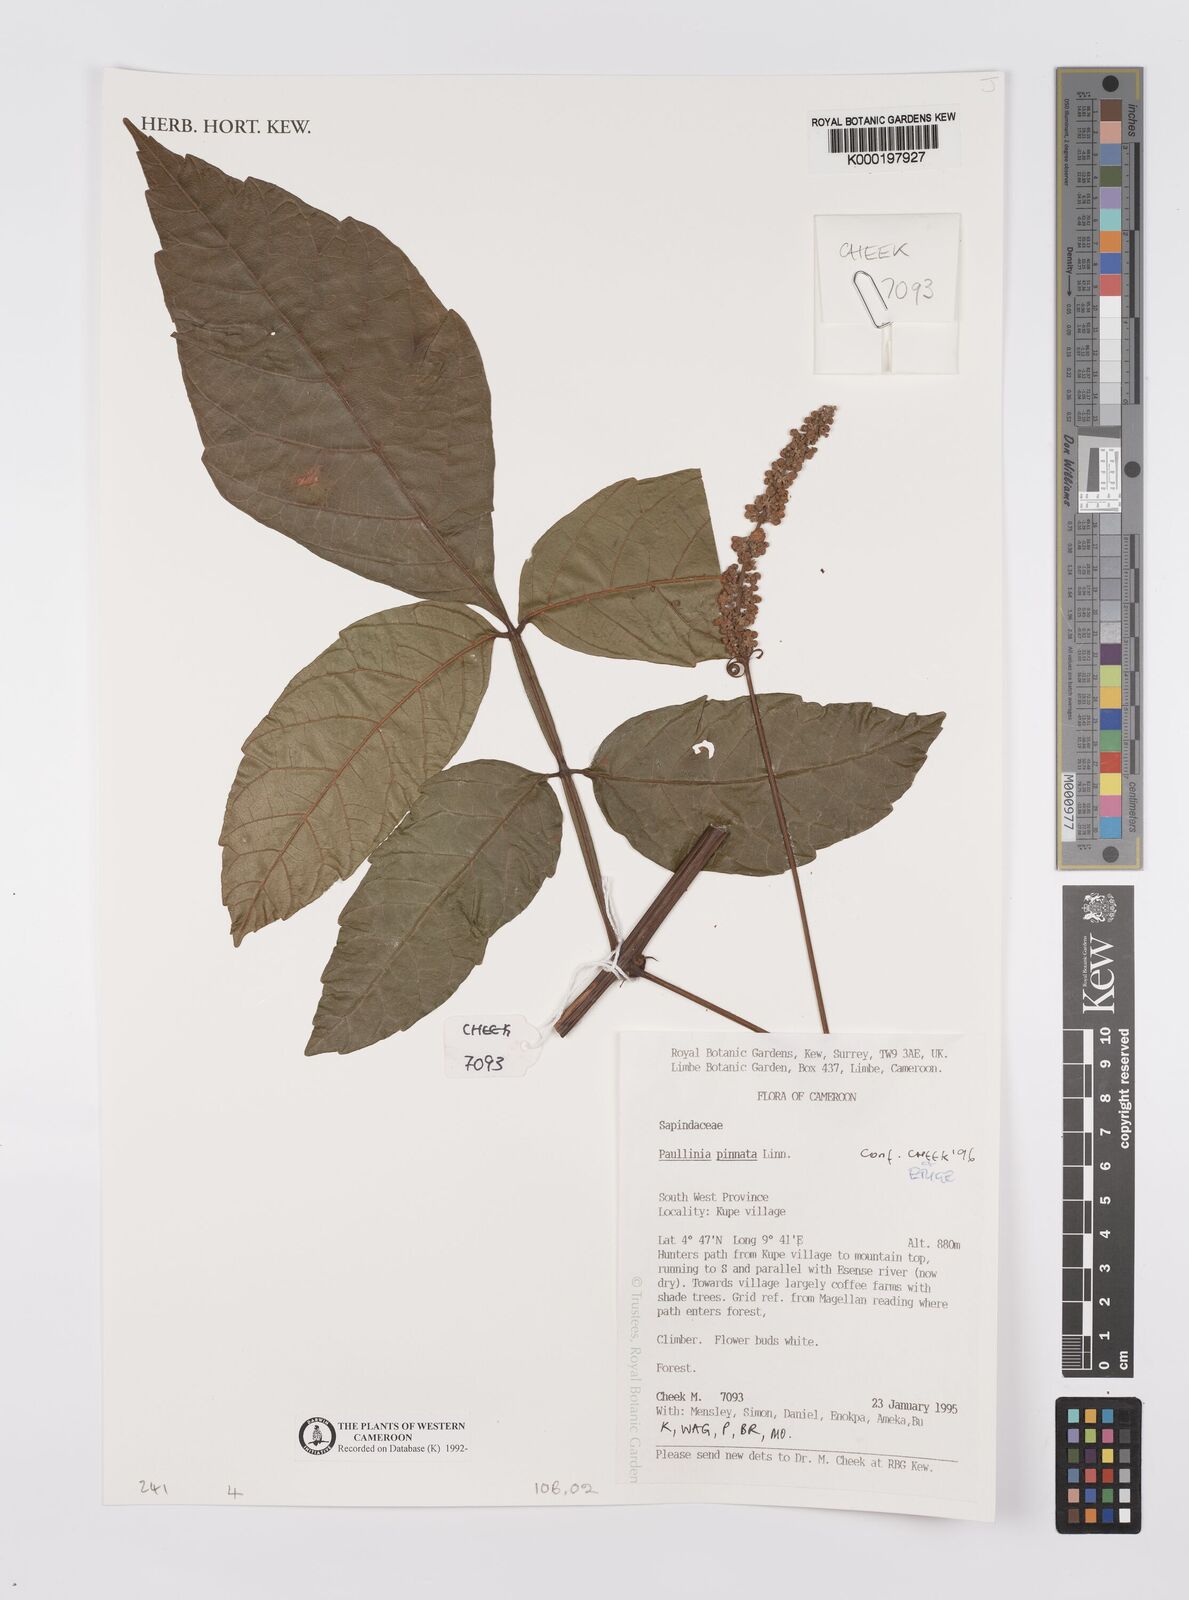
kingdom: Plantae
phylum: Tracheophyta
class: Magnoliopsida
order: Sapindales
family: Sapindaceae
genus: Paullinia
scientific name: Paullinia pinnata
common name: Barbasco
